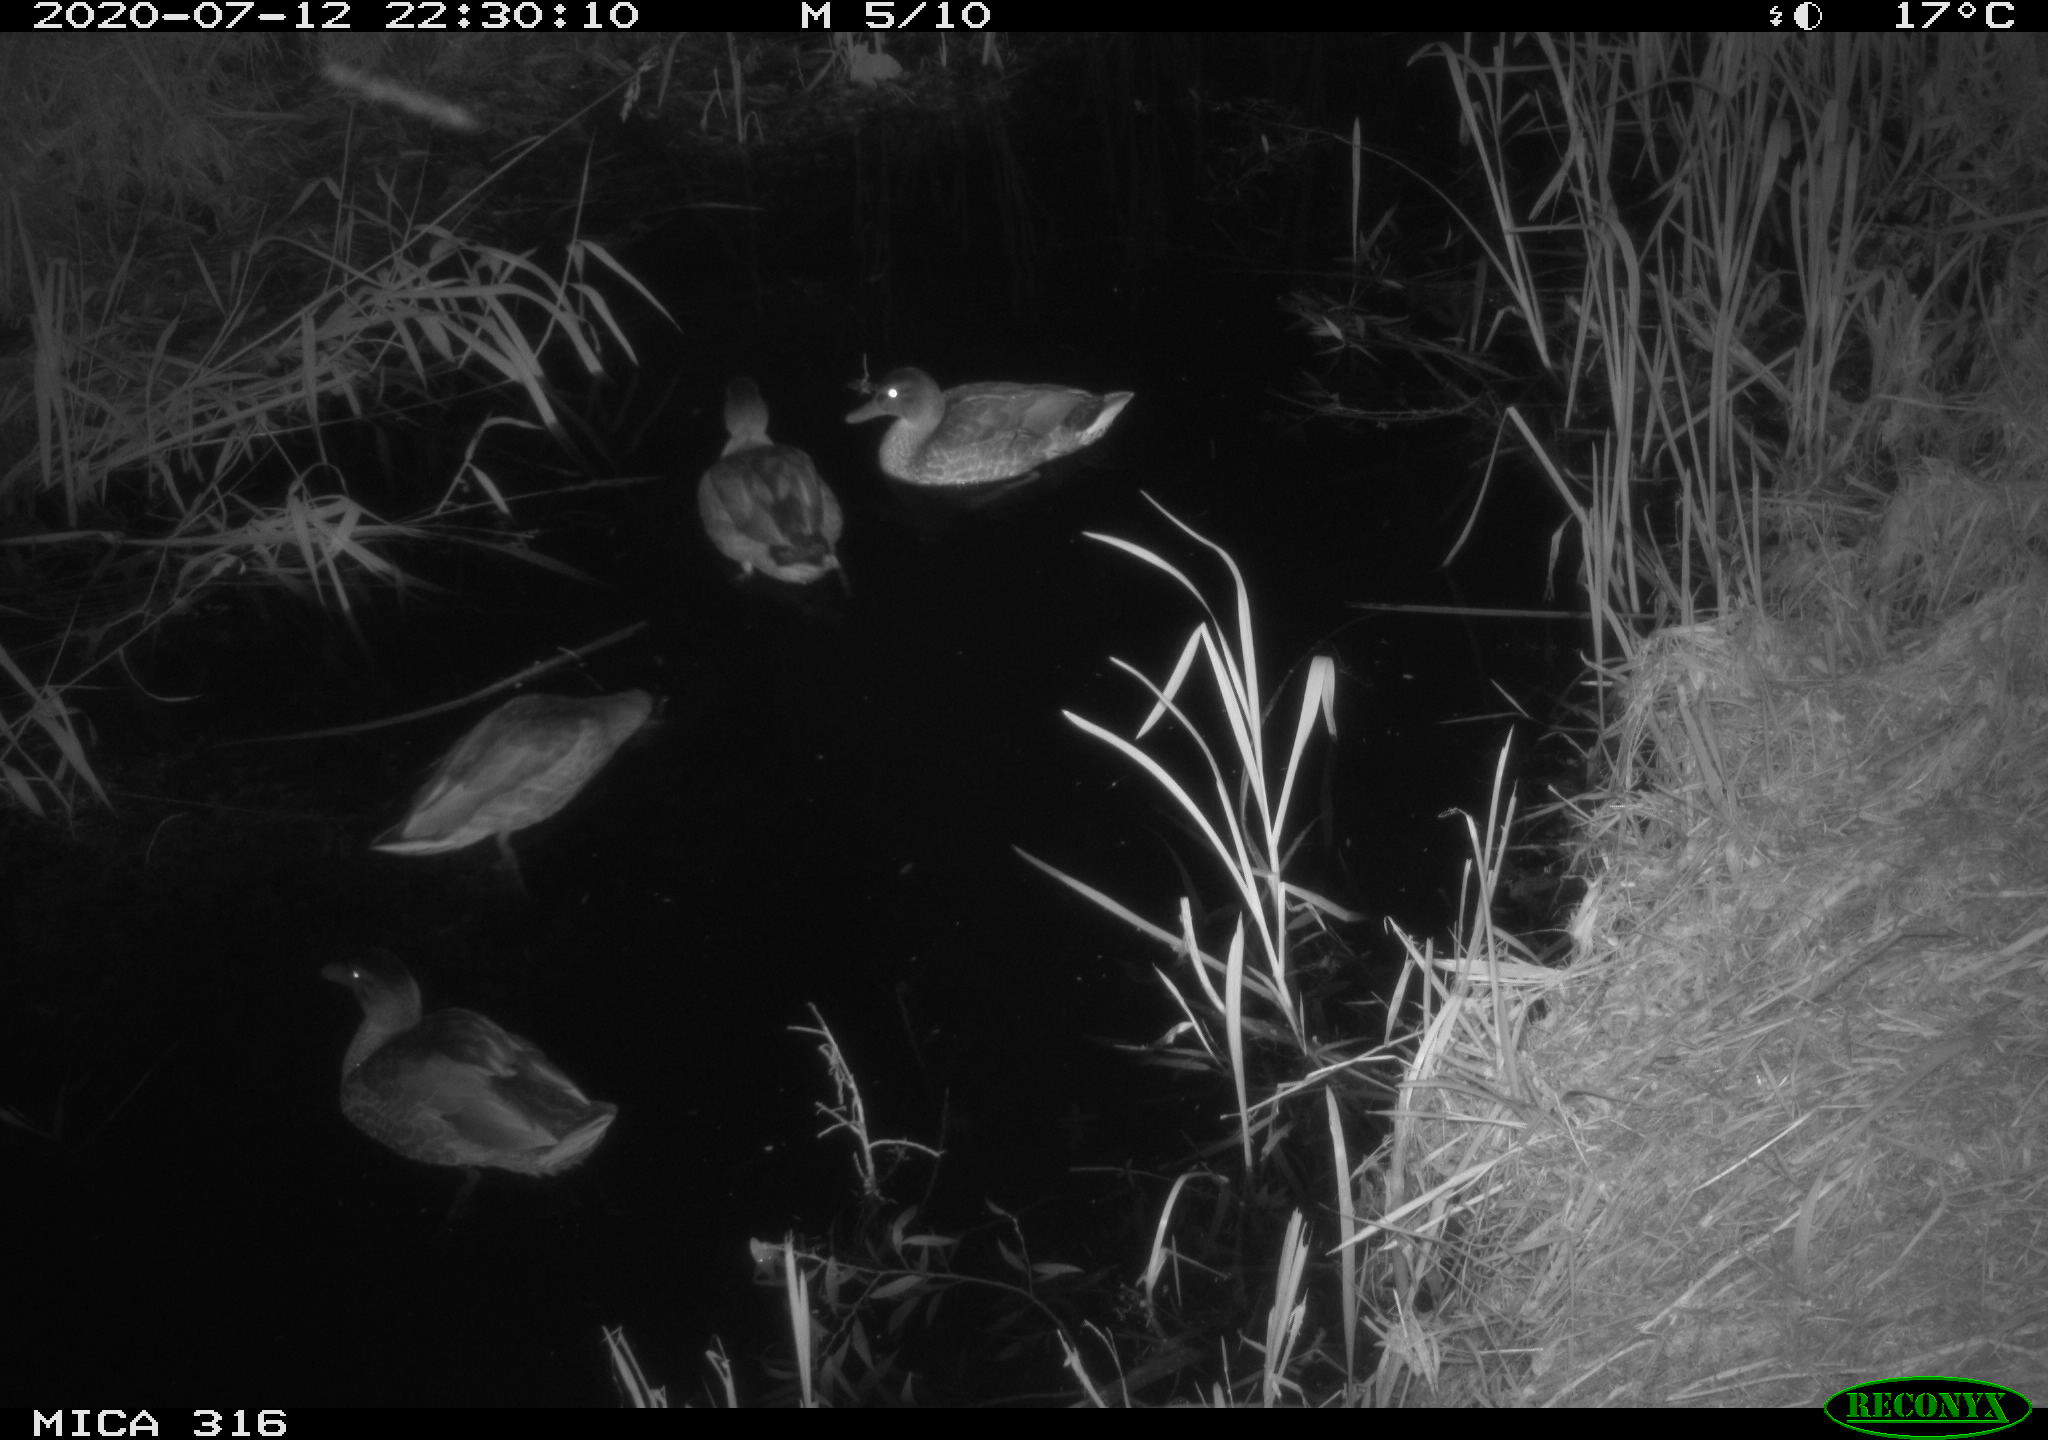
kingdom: Animalia
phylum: Chordata
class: Aves
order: Anseriformes
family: Anatidae
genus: Anas
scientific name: Anas platyrhynchos
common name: Mallard
